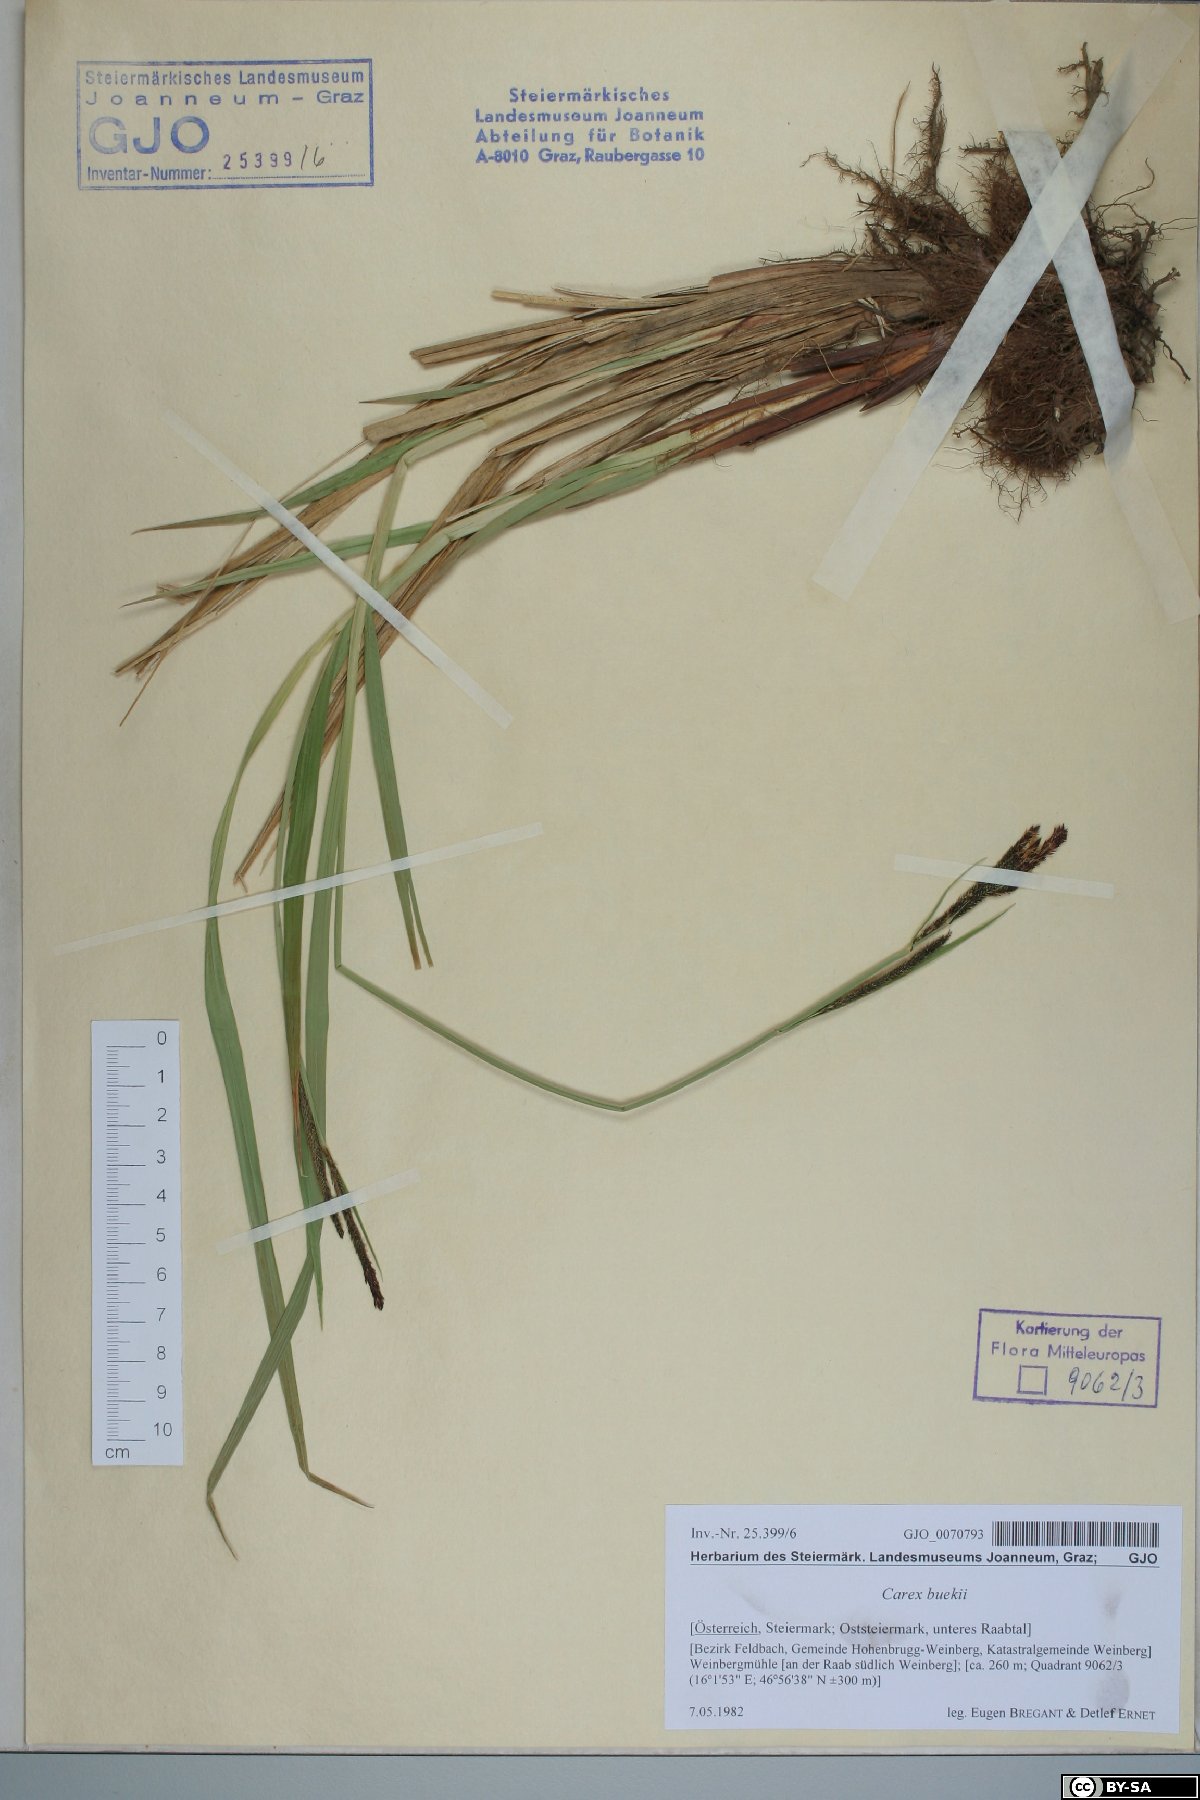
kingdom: Plantae
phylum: Tracheophyta
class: Liliopsida
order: Poales
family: Cyperaceae
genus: Carex
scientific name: Carex buekii
